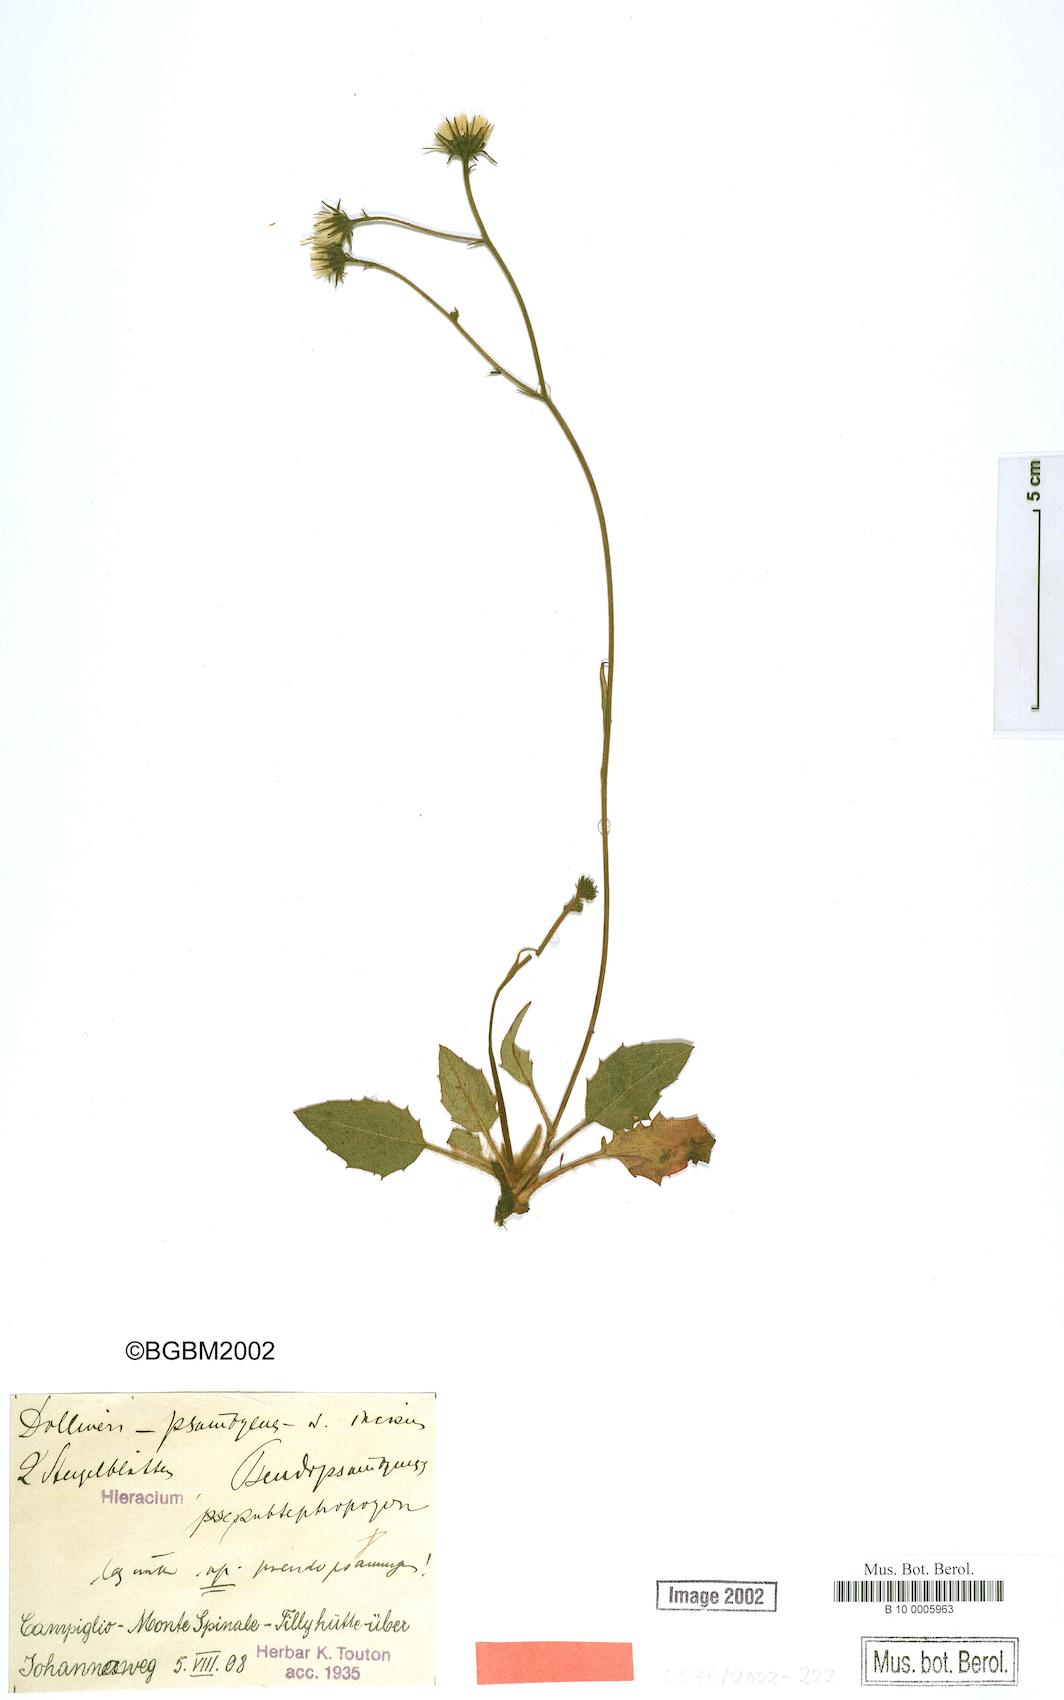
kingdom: Plantae
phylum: Tracheophyta
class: Magnoliopsida
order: Asterales
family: Asteraceae
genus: Hieracium
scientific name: Hieracium bifidum
